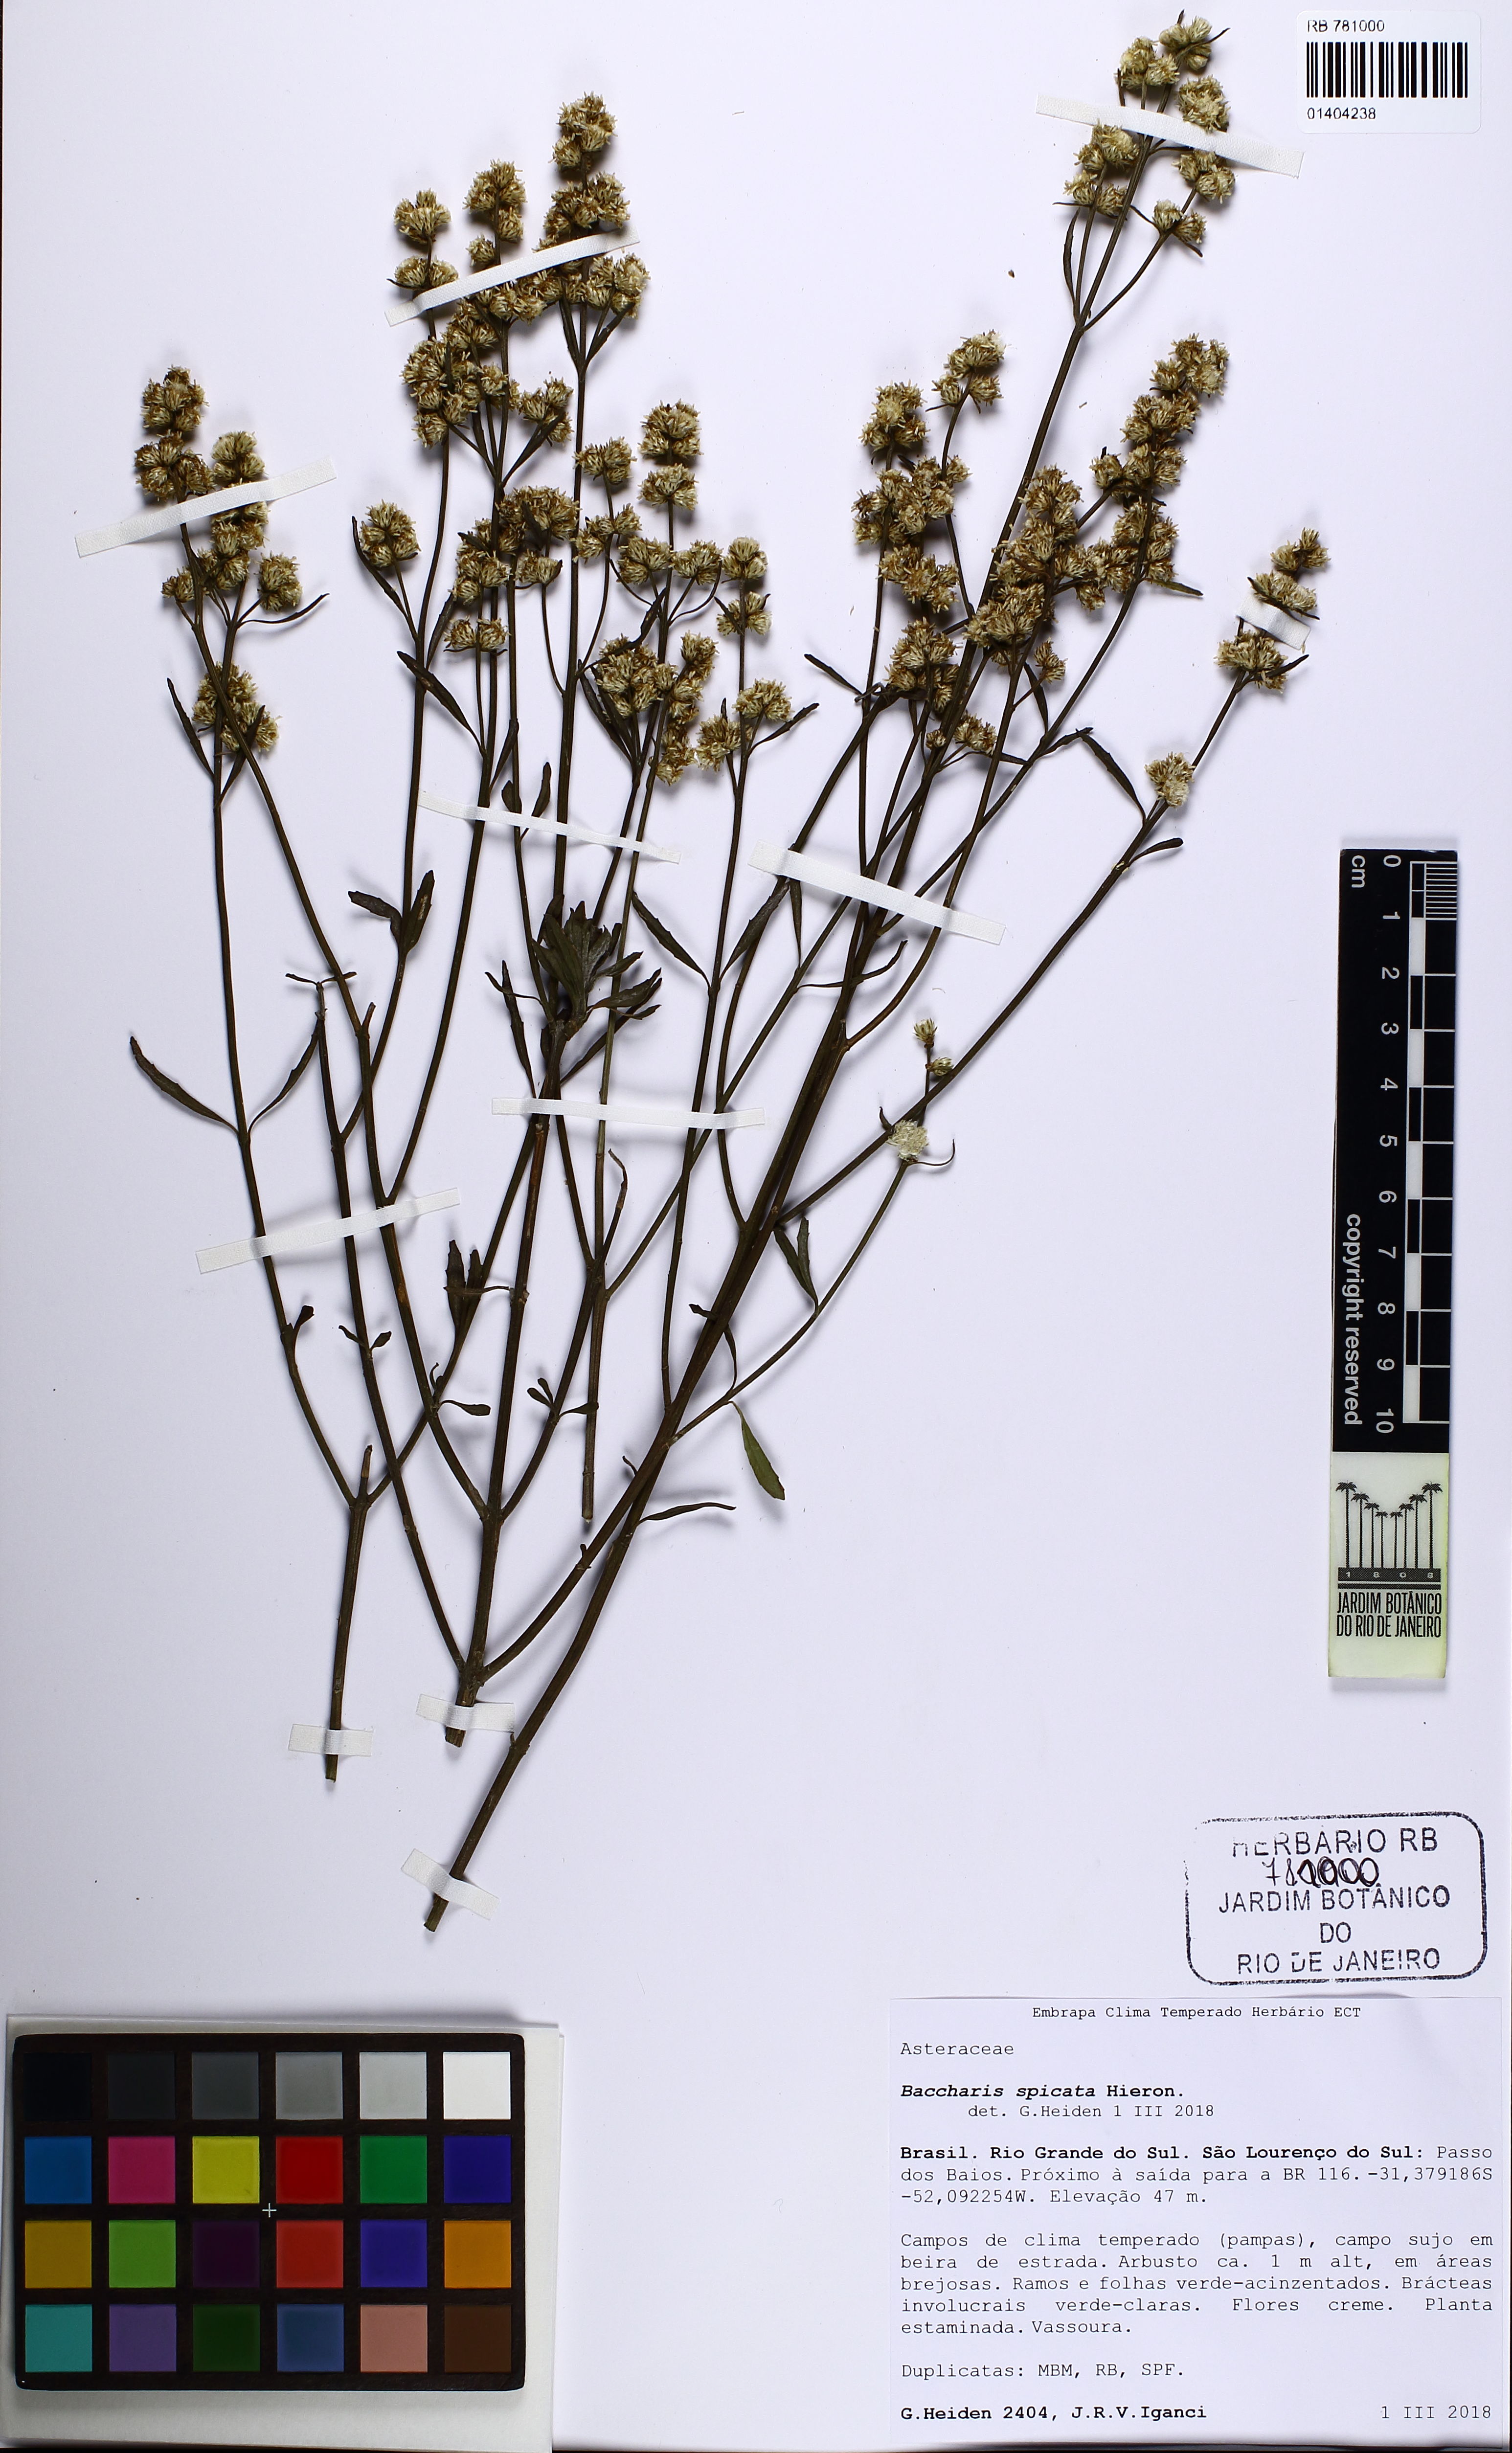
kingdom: Plantae
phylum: Tracheophyta
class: Magnoliopsida
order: Asterales
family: Asteraceae
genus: Baccharis
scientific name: Baccharis spicata
